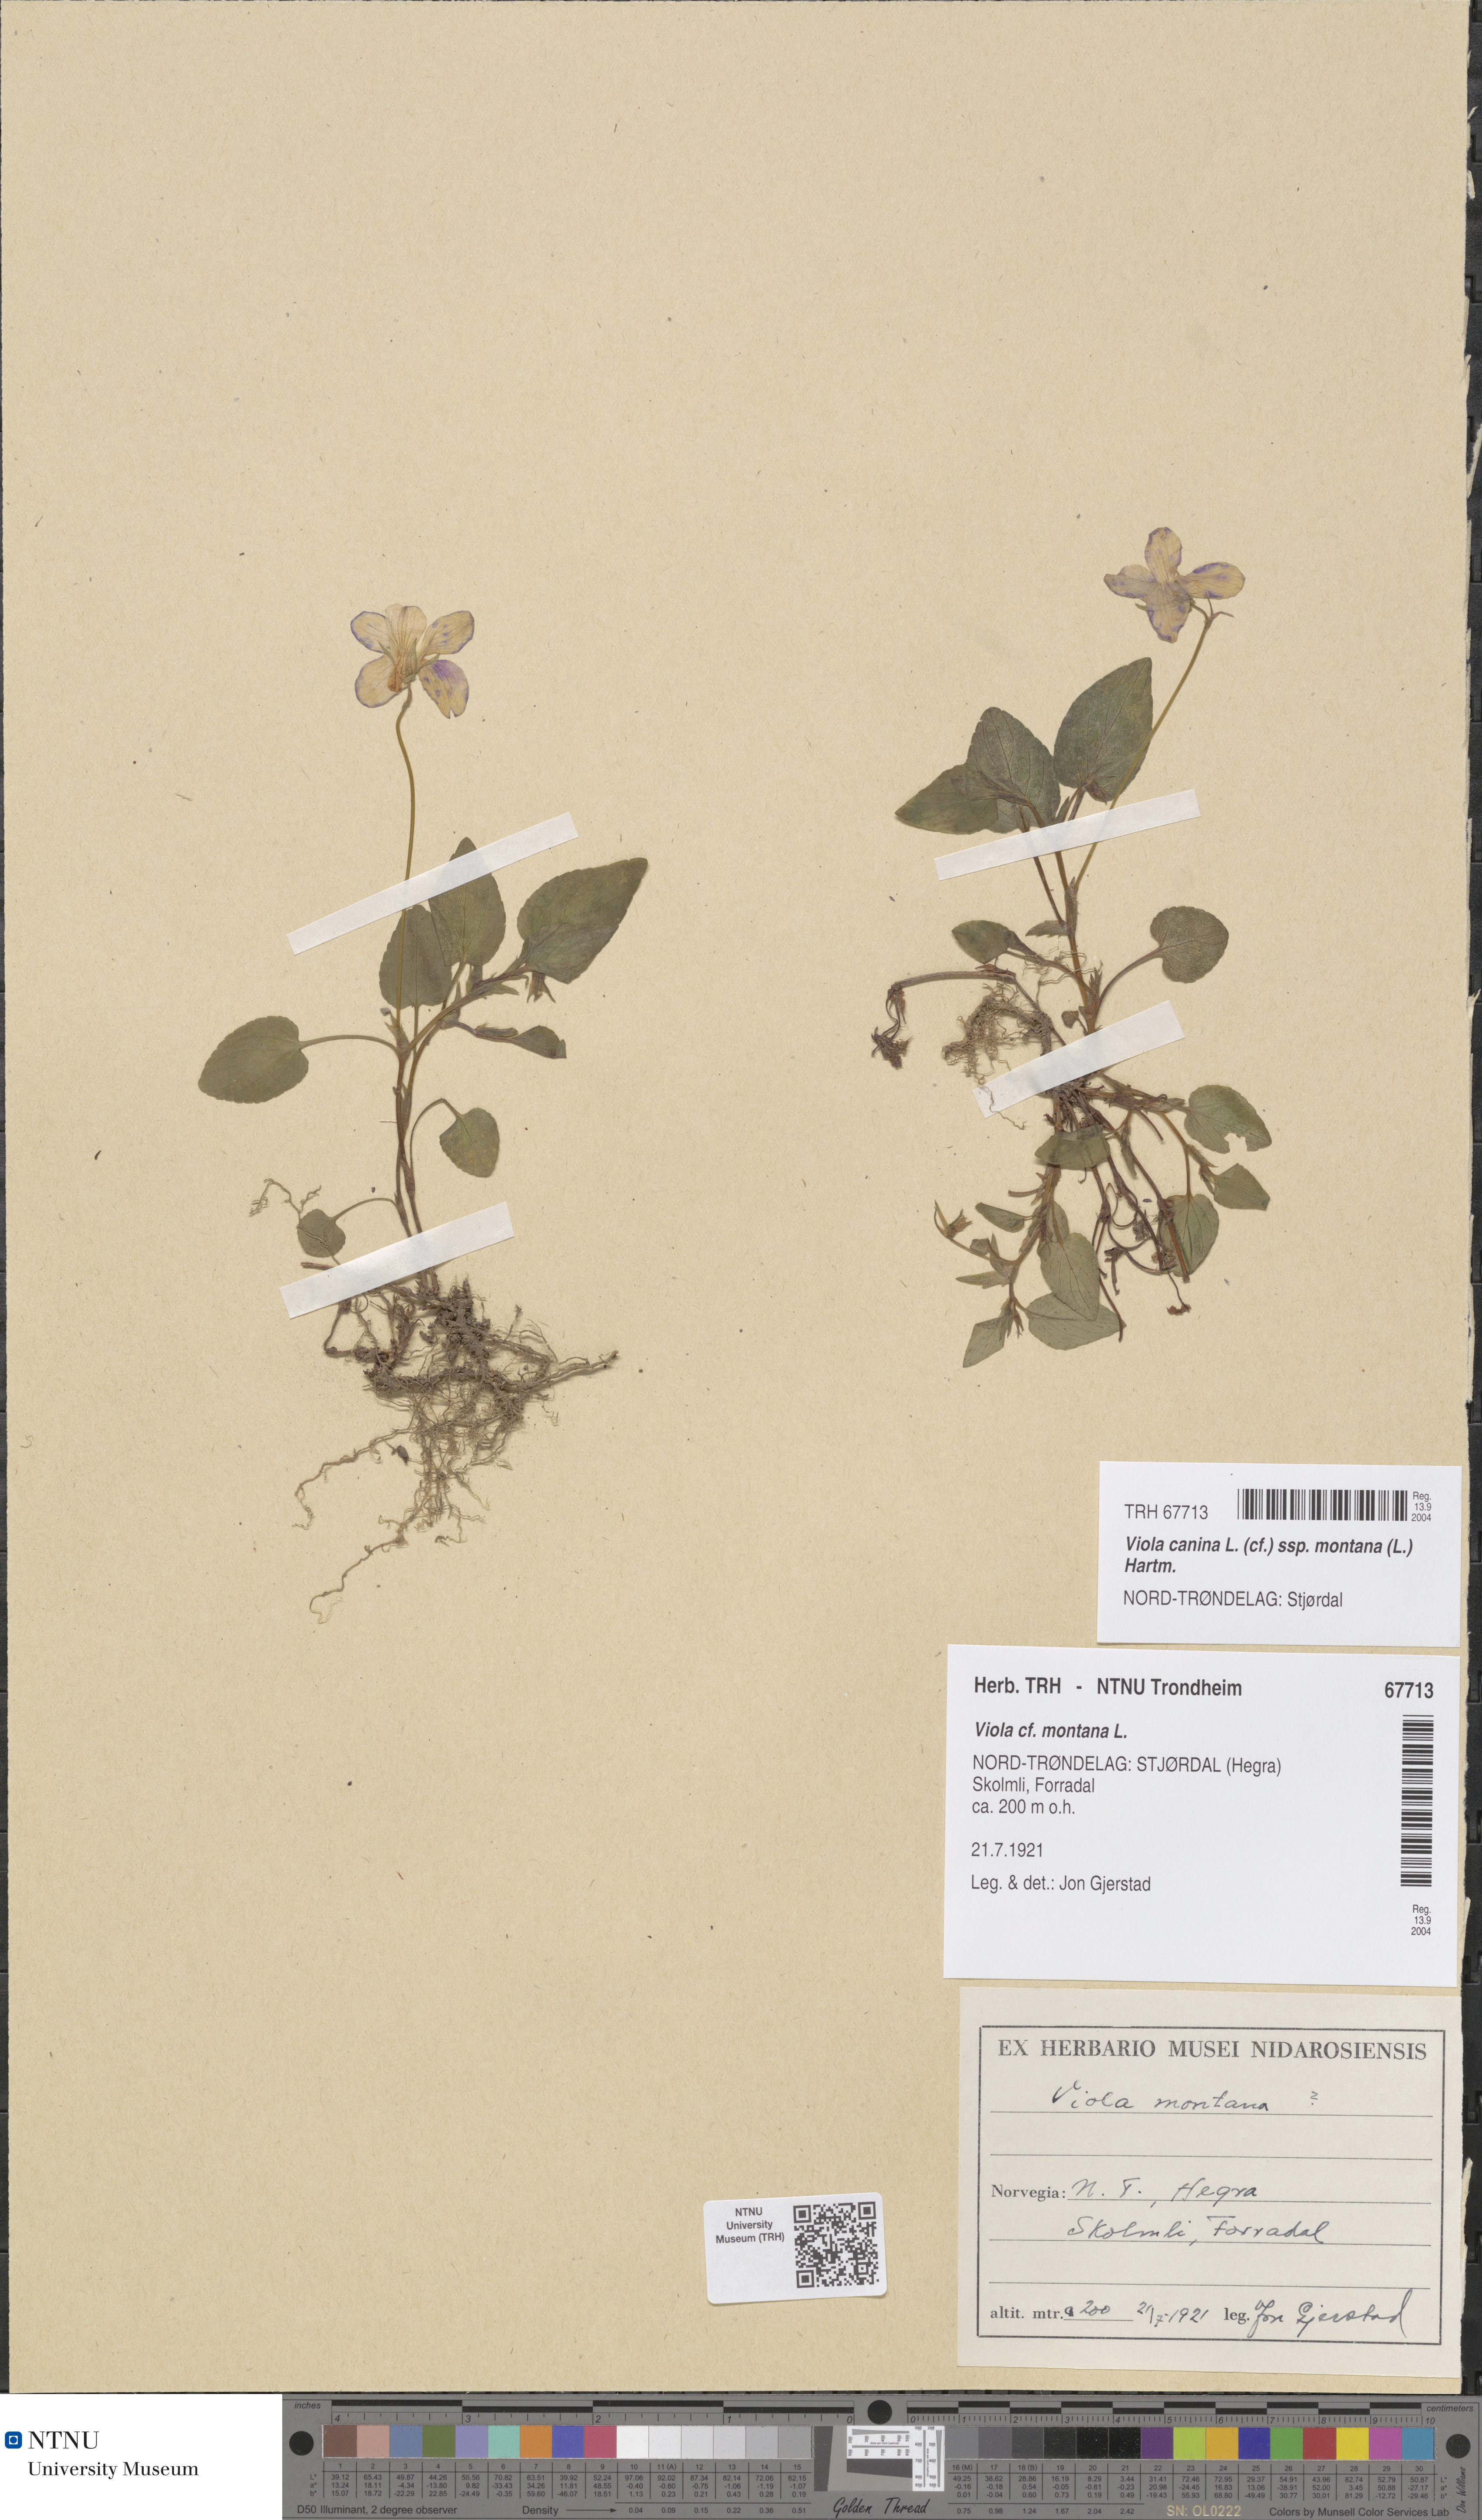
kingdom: Plantae
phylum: Tracheophyta
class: Magnoliopsida
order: Malpighiales
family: Violaceae
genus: Viola
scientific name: Viola ruppii
